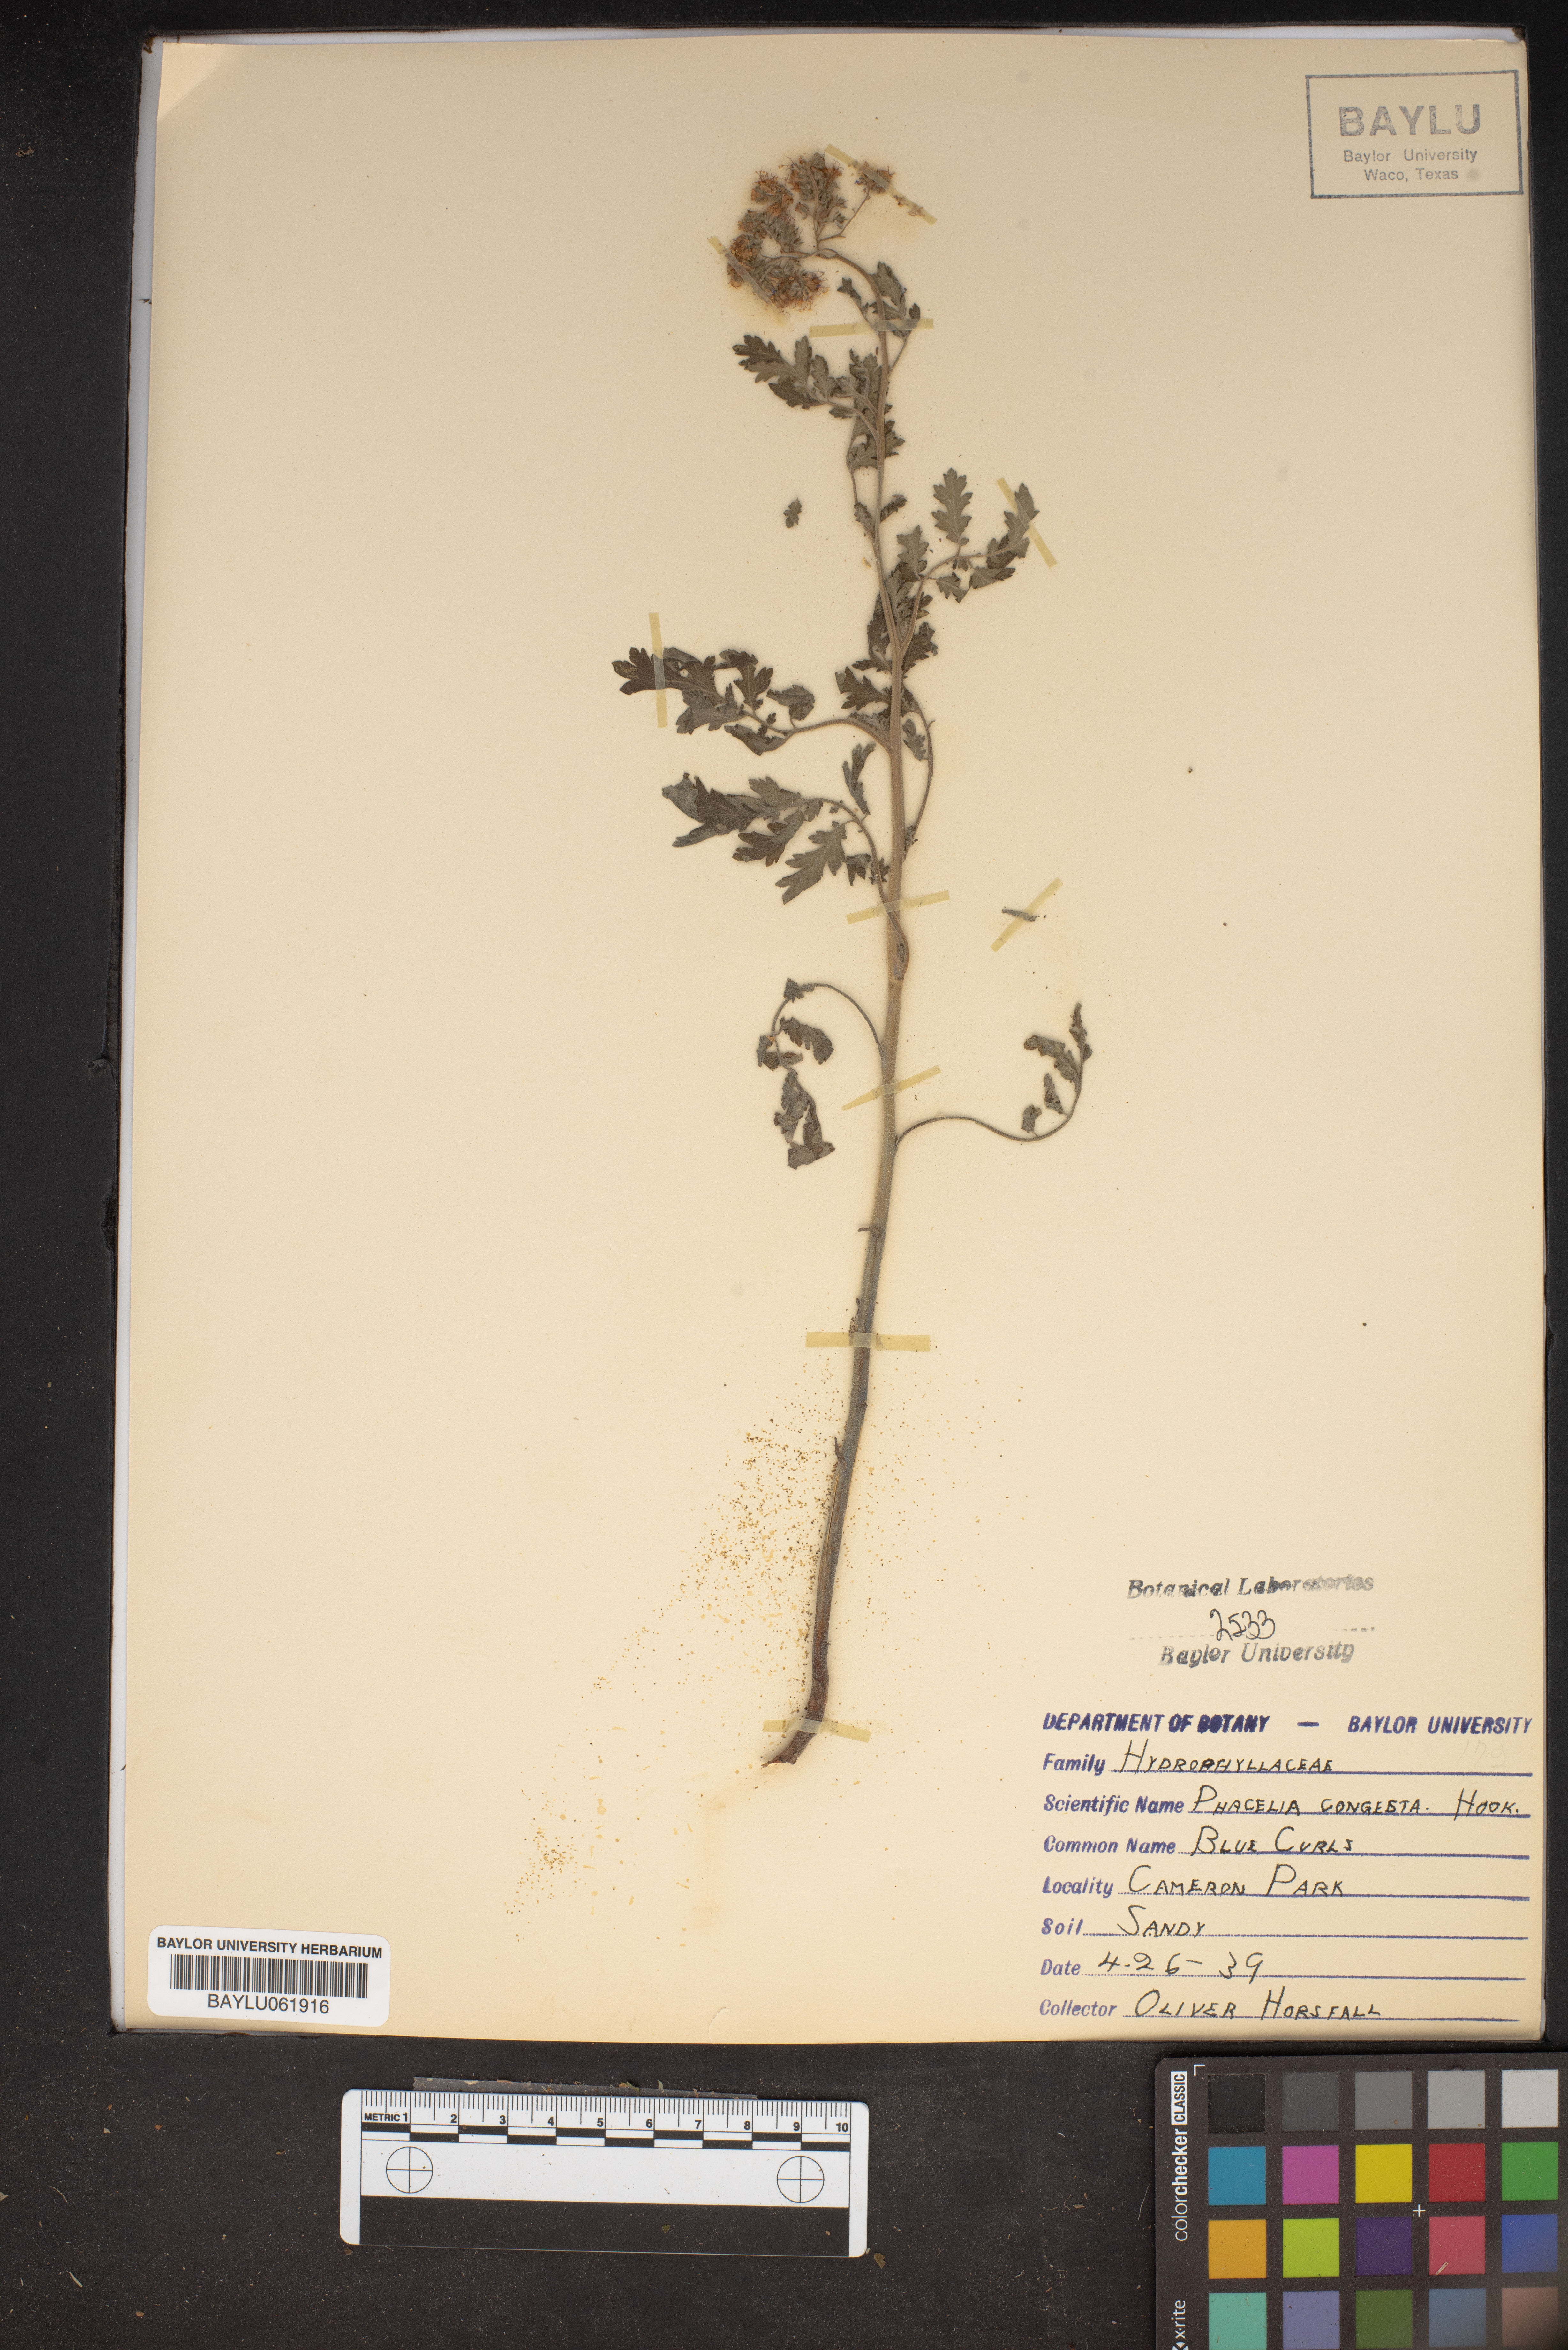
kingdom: Plantae
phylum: Tracheophyta
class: Magnoliopsida
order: Boraginales
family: Hydrophyllaceae
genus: Phacelia
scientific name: Phacelia congesta
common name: Blue curls
